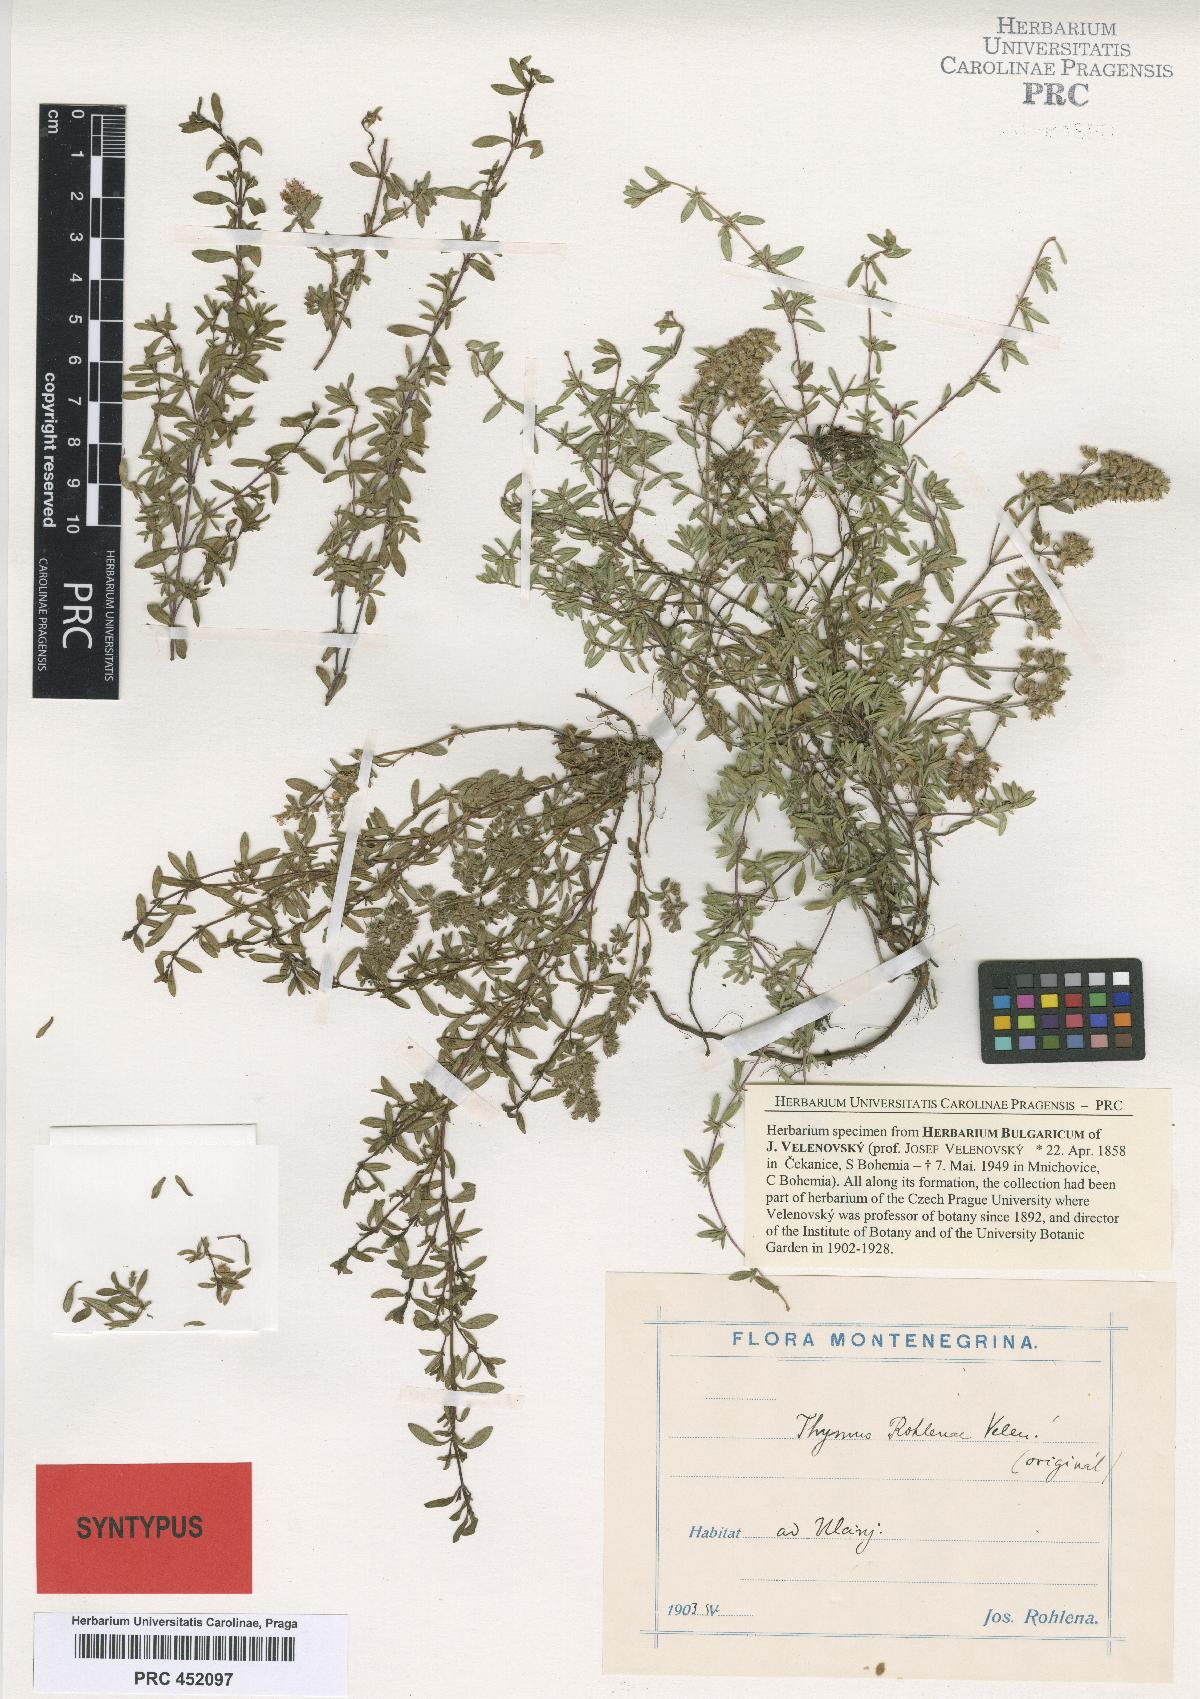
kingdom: Plantae
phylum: Tracheophyta
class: Magnoliopsida
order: Lamiales
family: Lamiaceae
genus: Thymus
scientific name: Thymus longicaulis
